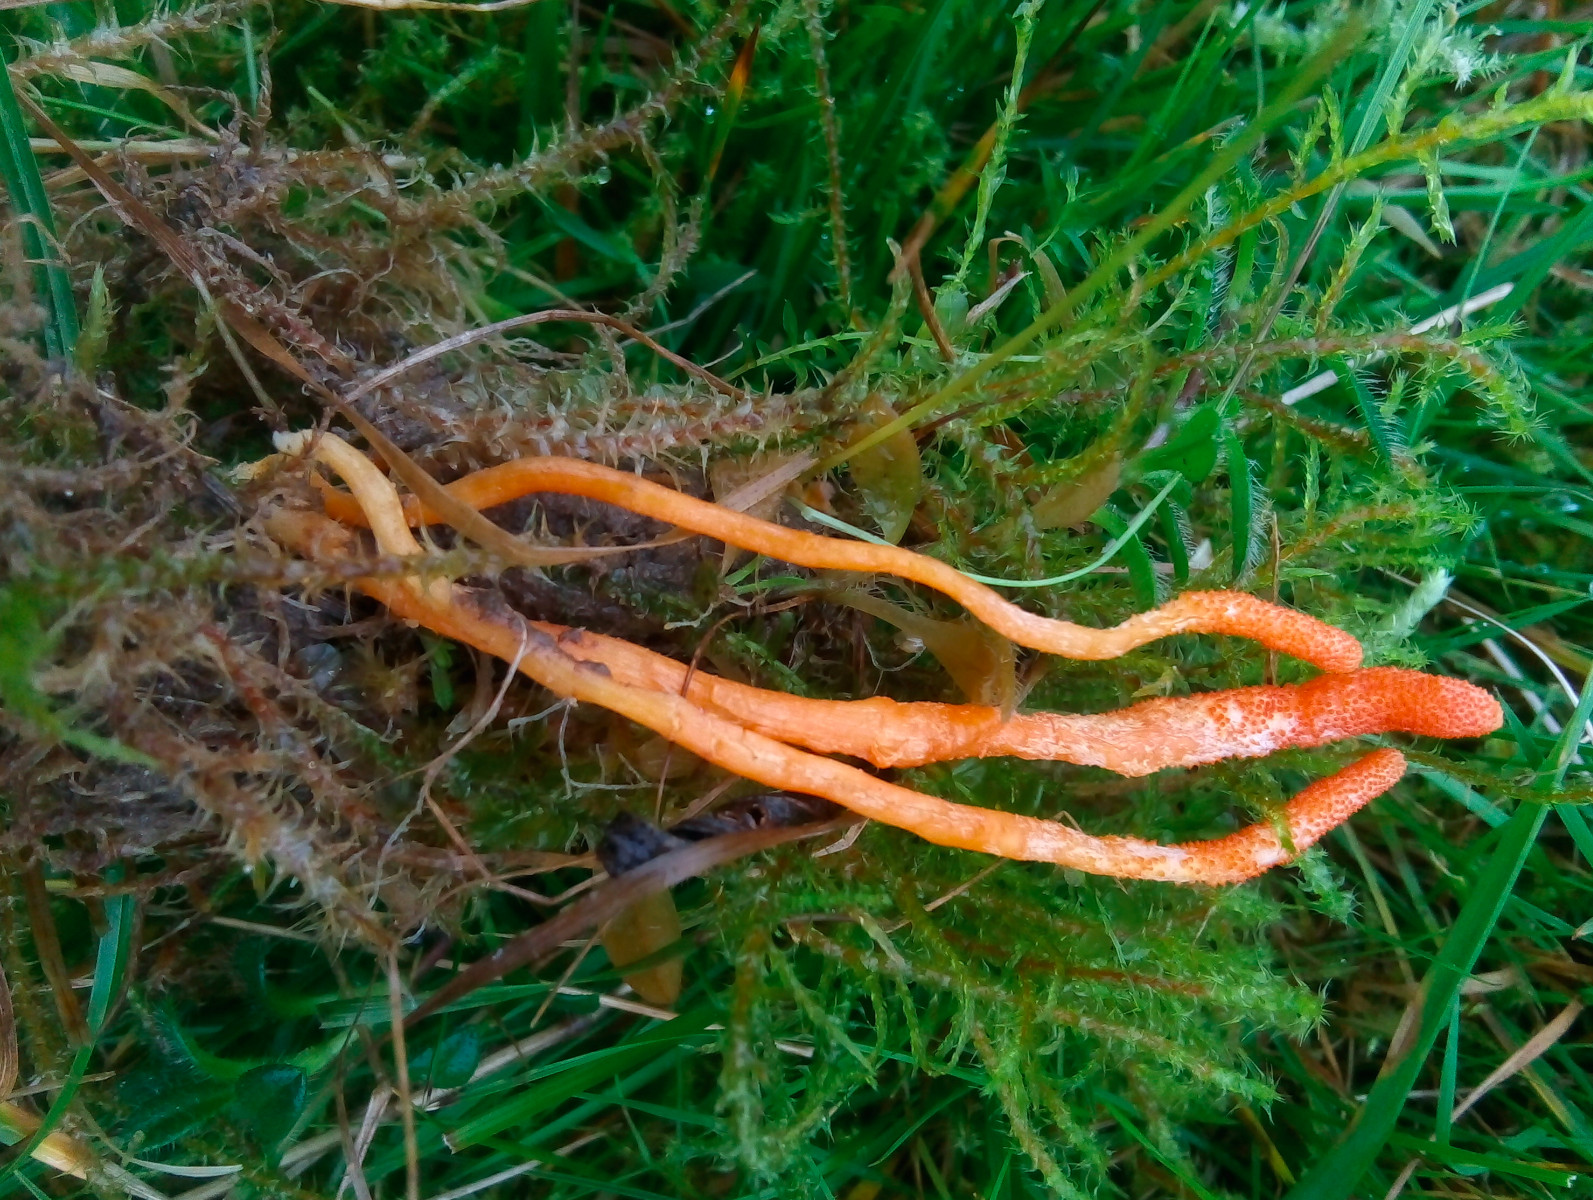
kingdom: Fungi
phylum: Ascomycota
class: Sordariomycetes
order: Hypocreales
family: Cordycipitaceae
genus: Cordyceps
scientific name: Cordyceps militaris
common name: puppe-snyltekølle
